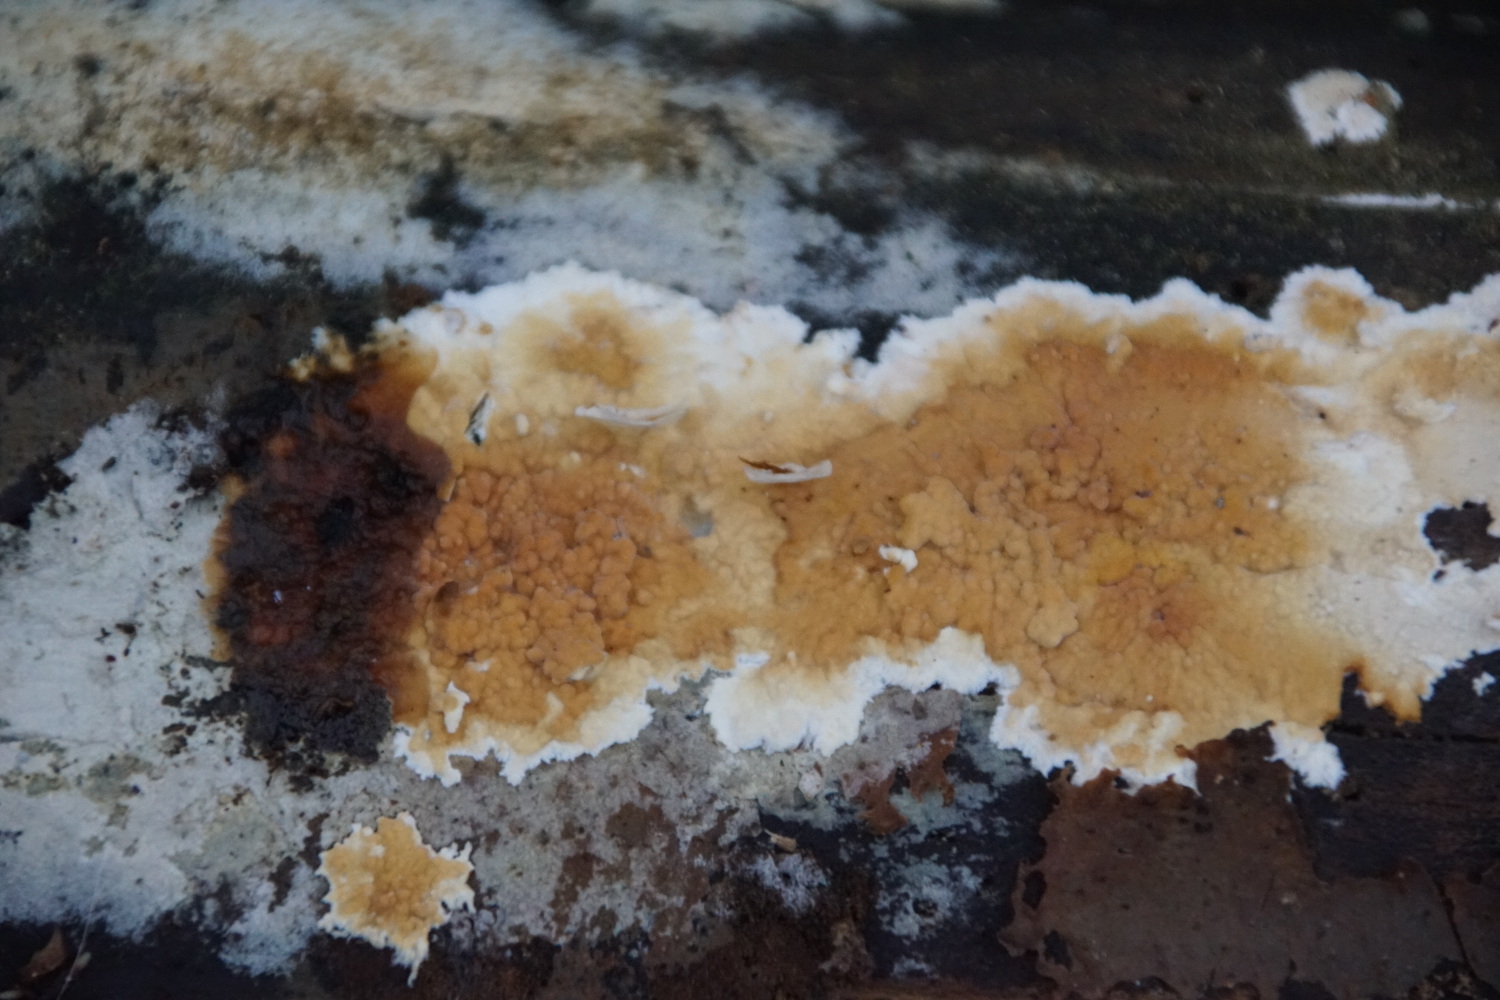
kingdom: Fungi
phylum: Basidiomycota
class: Agaricomycetes
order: Polyporales
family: Phanerochaetaceae
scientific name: Phanerochaetaceae
